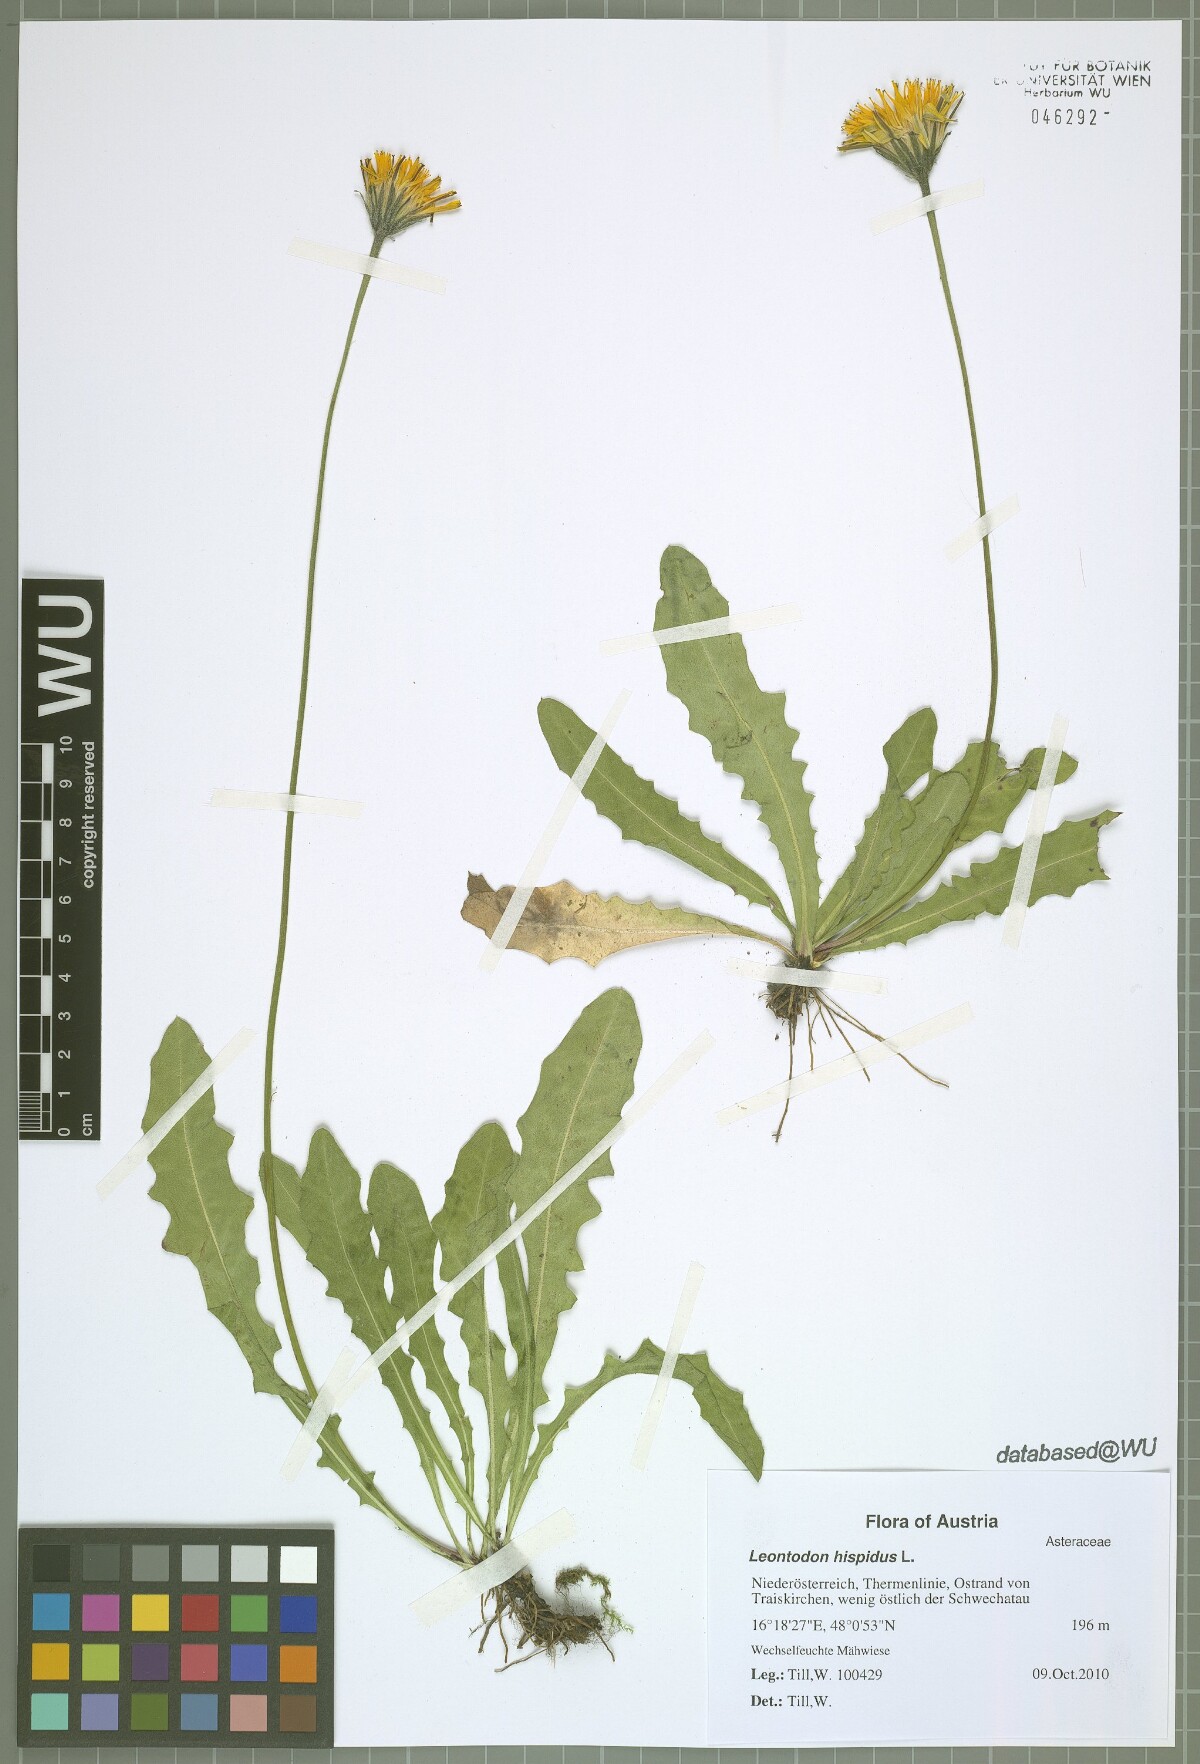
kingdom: Plantae
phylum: Tracheophyta
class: Magnoliopsida
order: Asterales
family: Asteraceae
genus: Leontodon
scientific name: Leontodon hispidus
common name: Rough hawkbit
